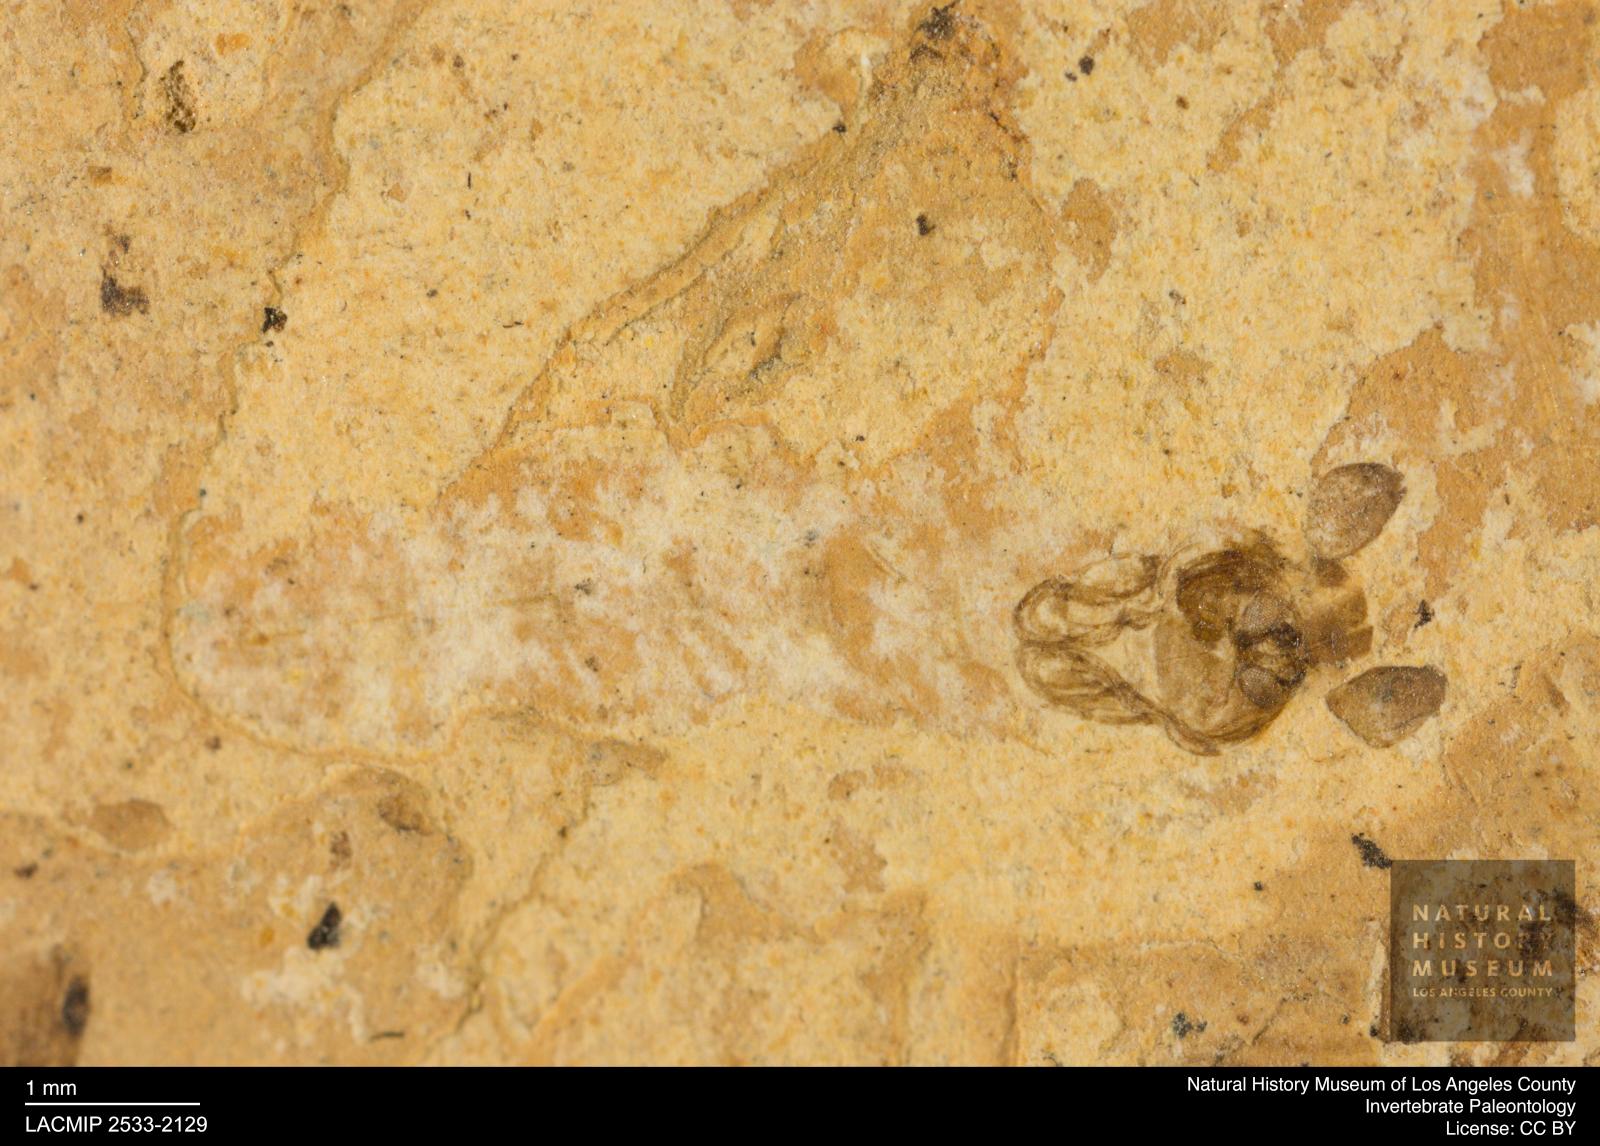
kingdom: Animalia
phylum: Arthropoda
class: Insecta
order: Diptera
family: Chironomidae
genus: Pelopiina
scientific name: Pelopiina
